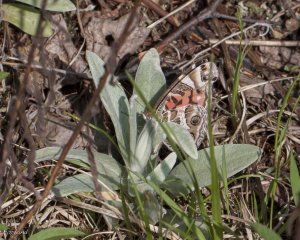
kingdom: Animalia
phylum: Arthropoda
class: Insecta
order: Lepidoptera
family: Nymphalidae
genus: Vanessa
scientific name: Vanessa virginiensis
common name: American Lady
